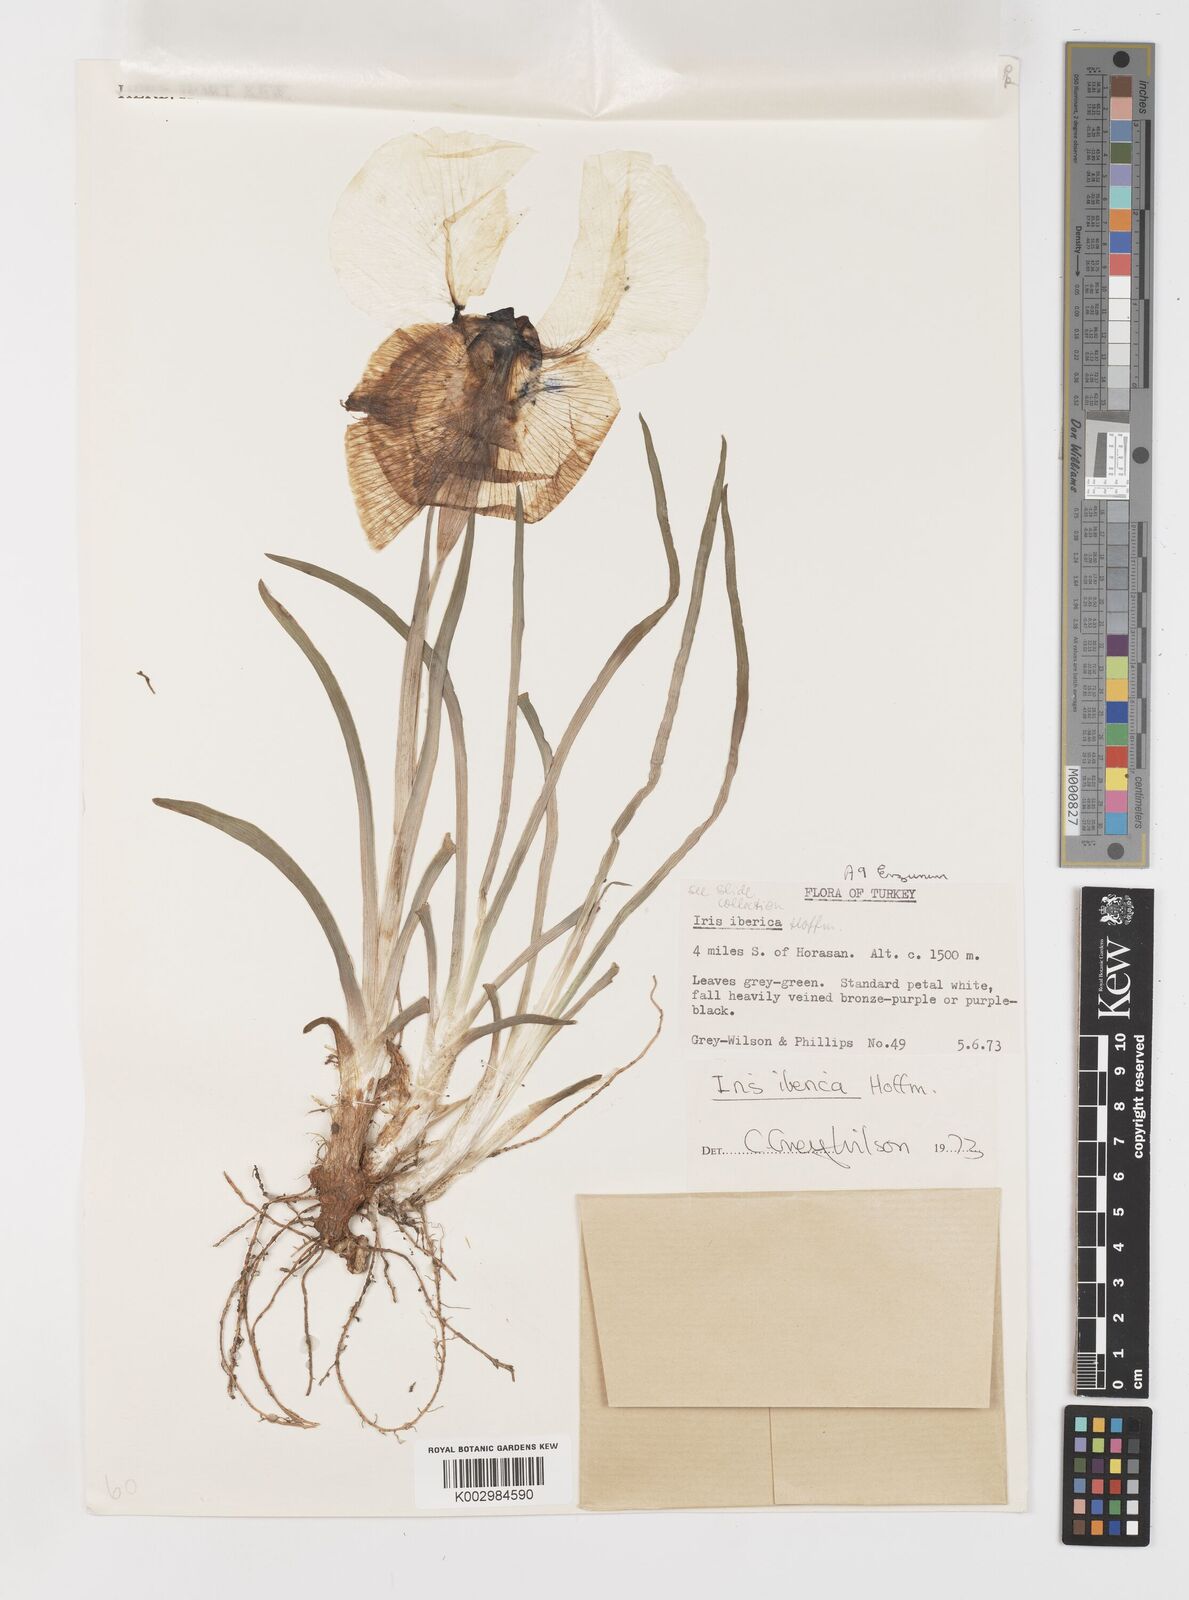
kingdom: Plantae
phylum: Tracheophyta
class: Liliopsida
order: Asparagales
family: Iridaceae
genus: Iris
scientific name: Iris iberica
